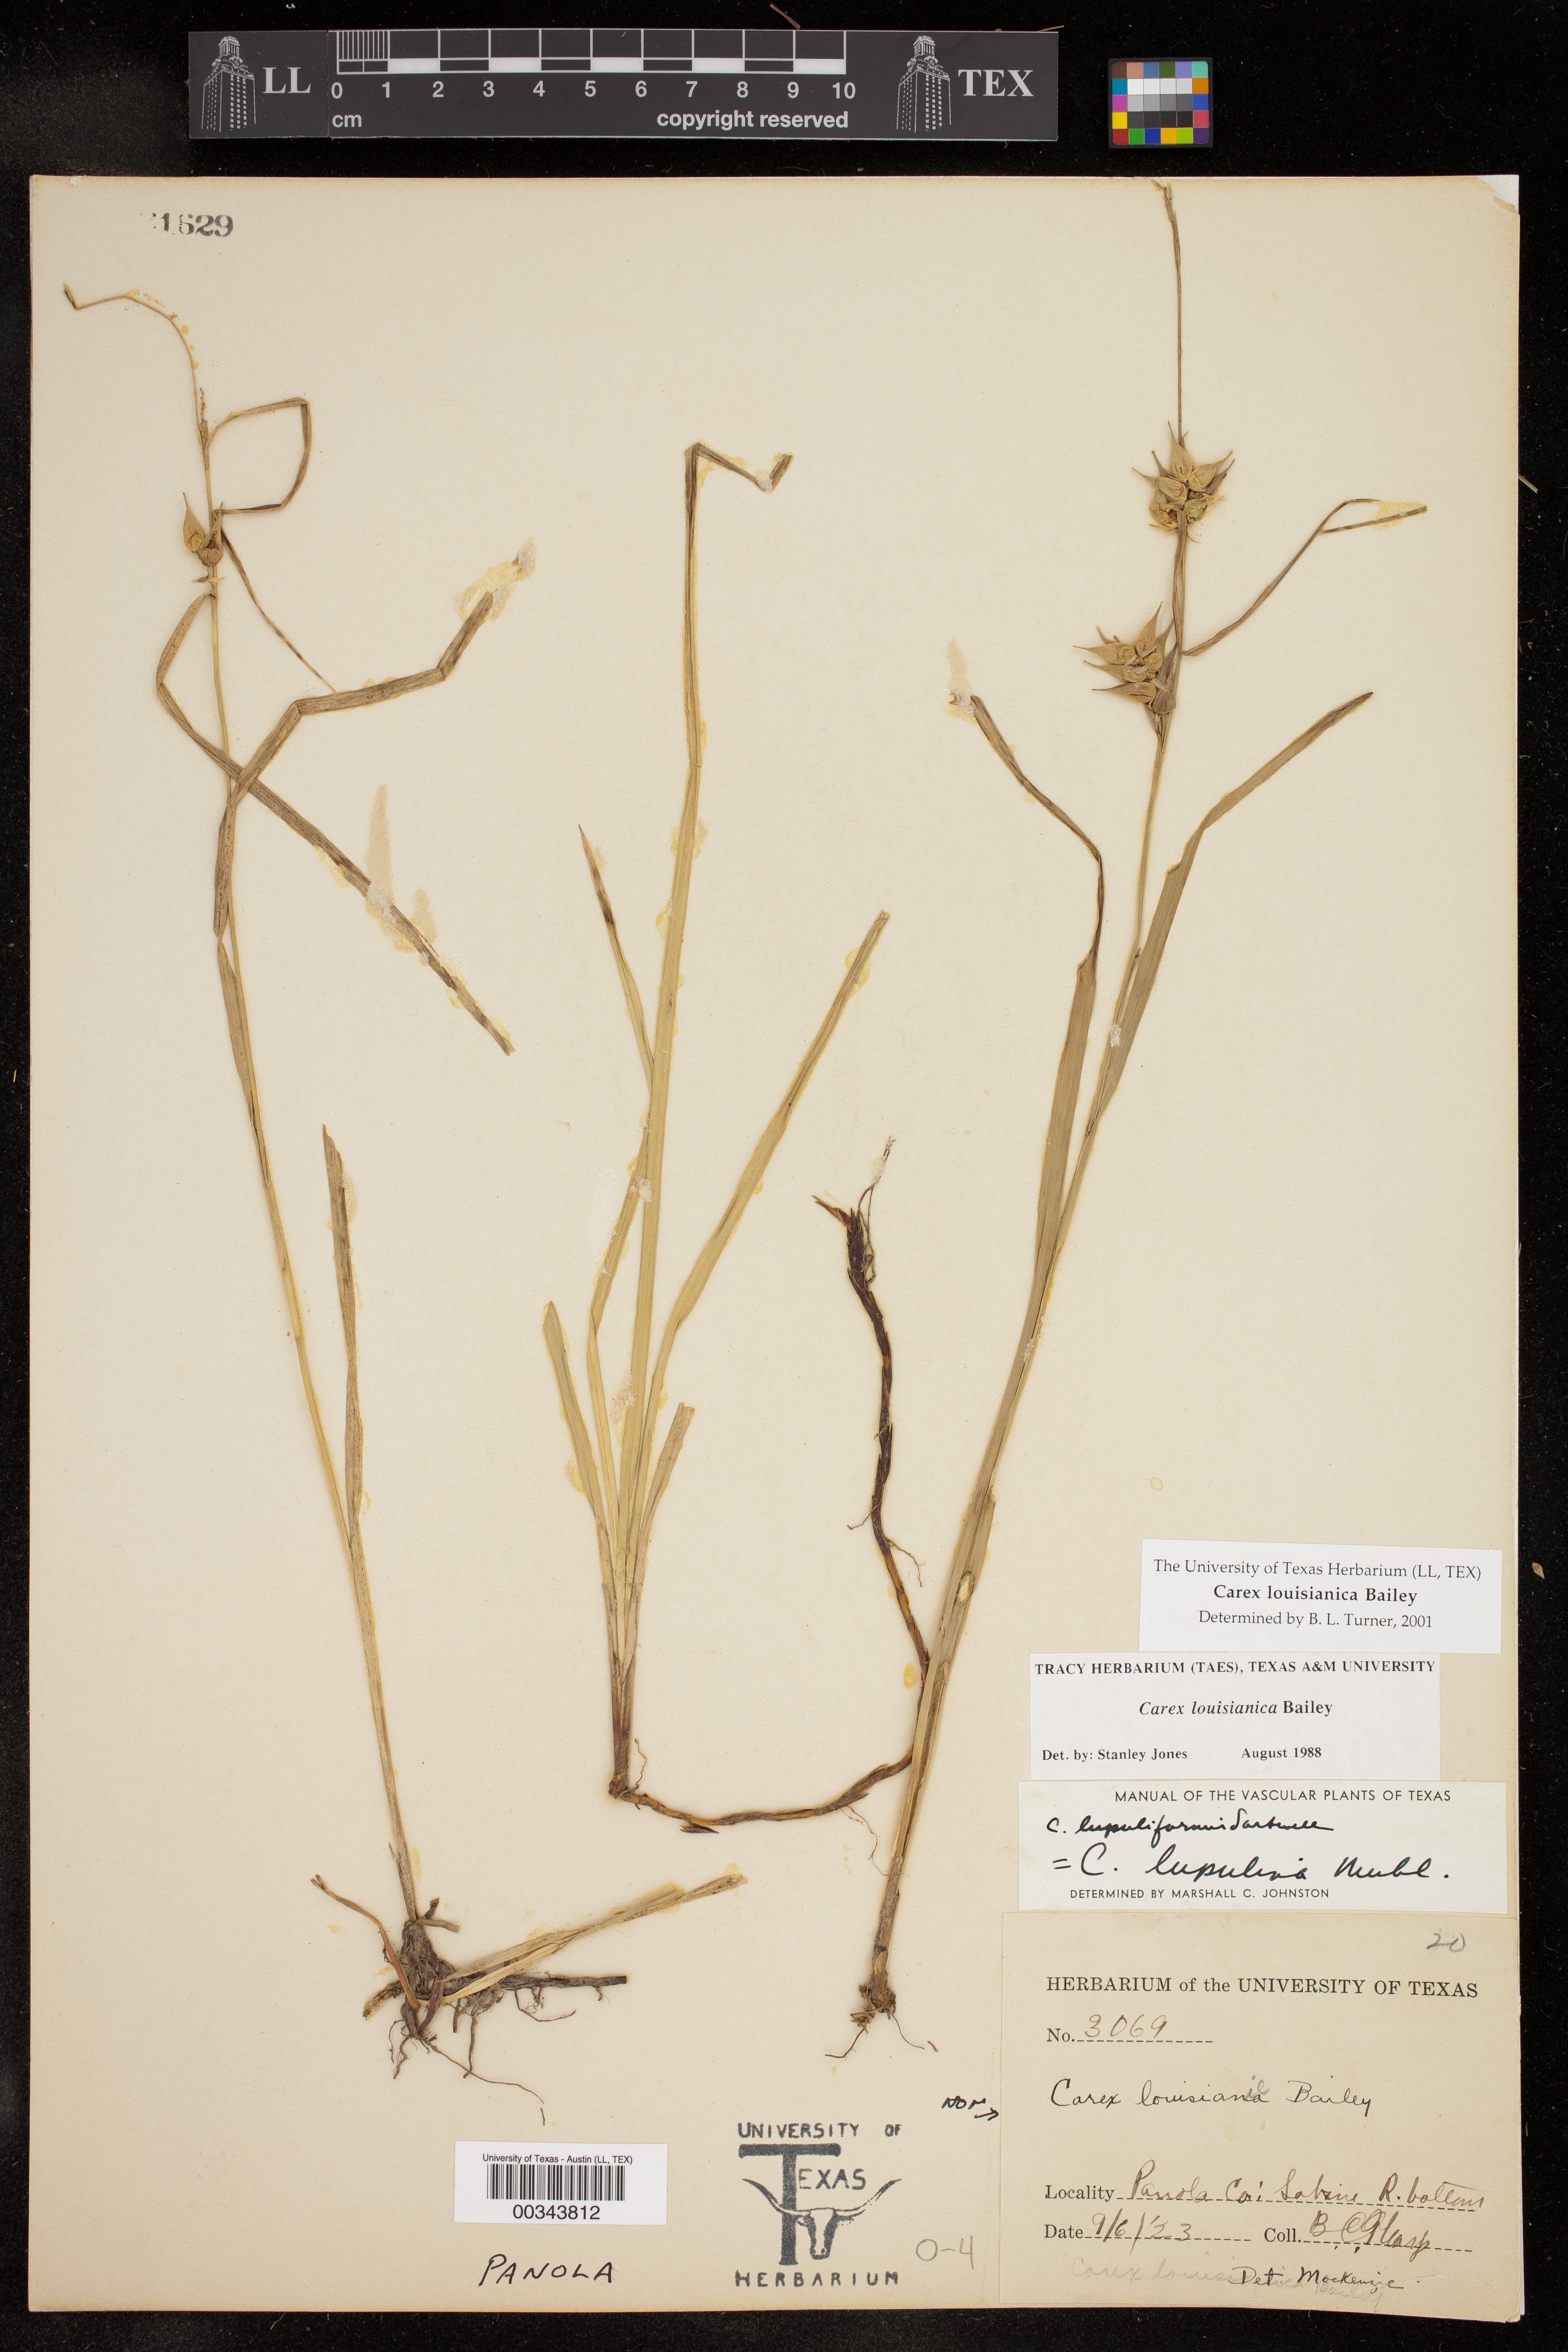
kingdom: Plantae
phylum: Tracheophyta
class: Liliopsida
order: Poales
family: Cyperaceae
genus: Carex
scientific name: Carex louisianica
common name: Louisiana sedge
